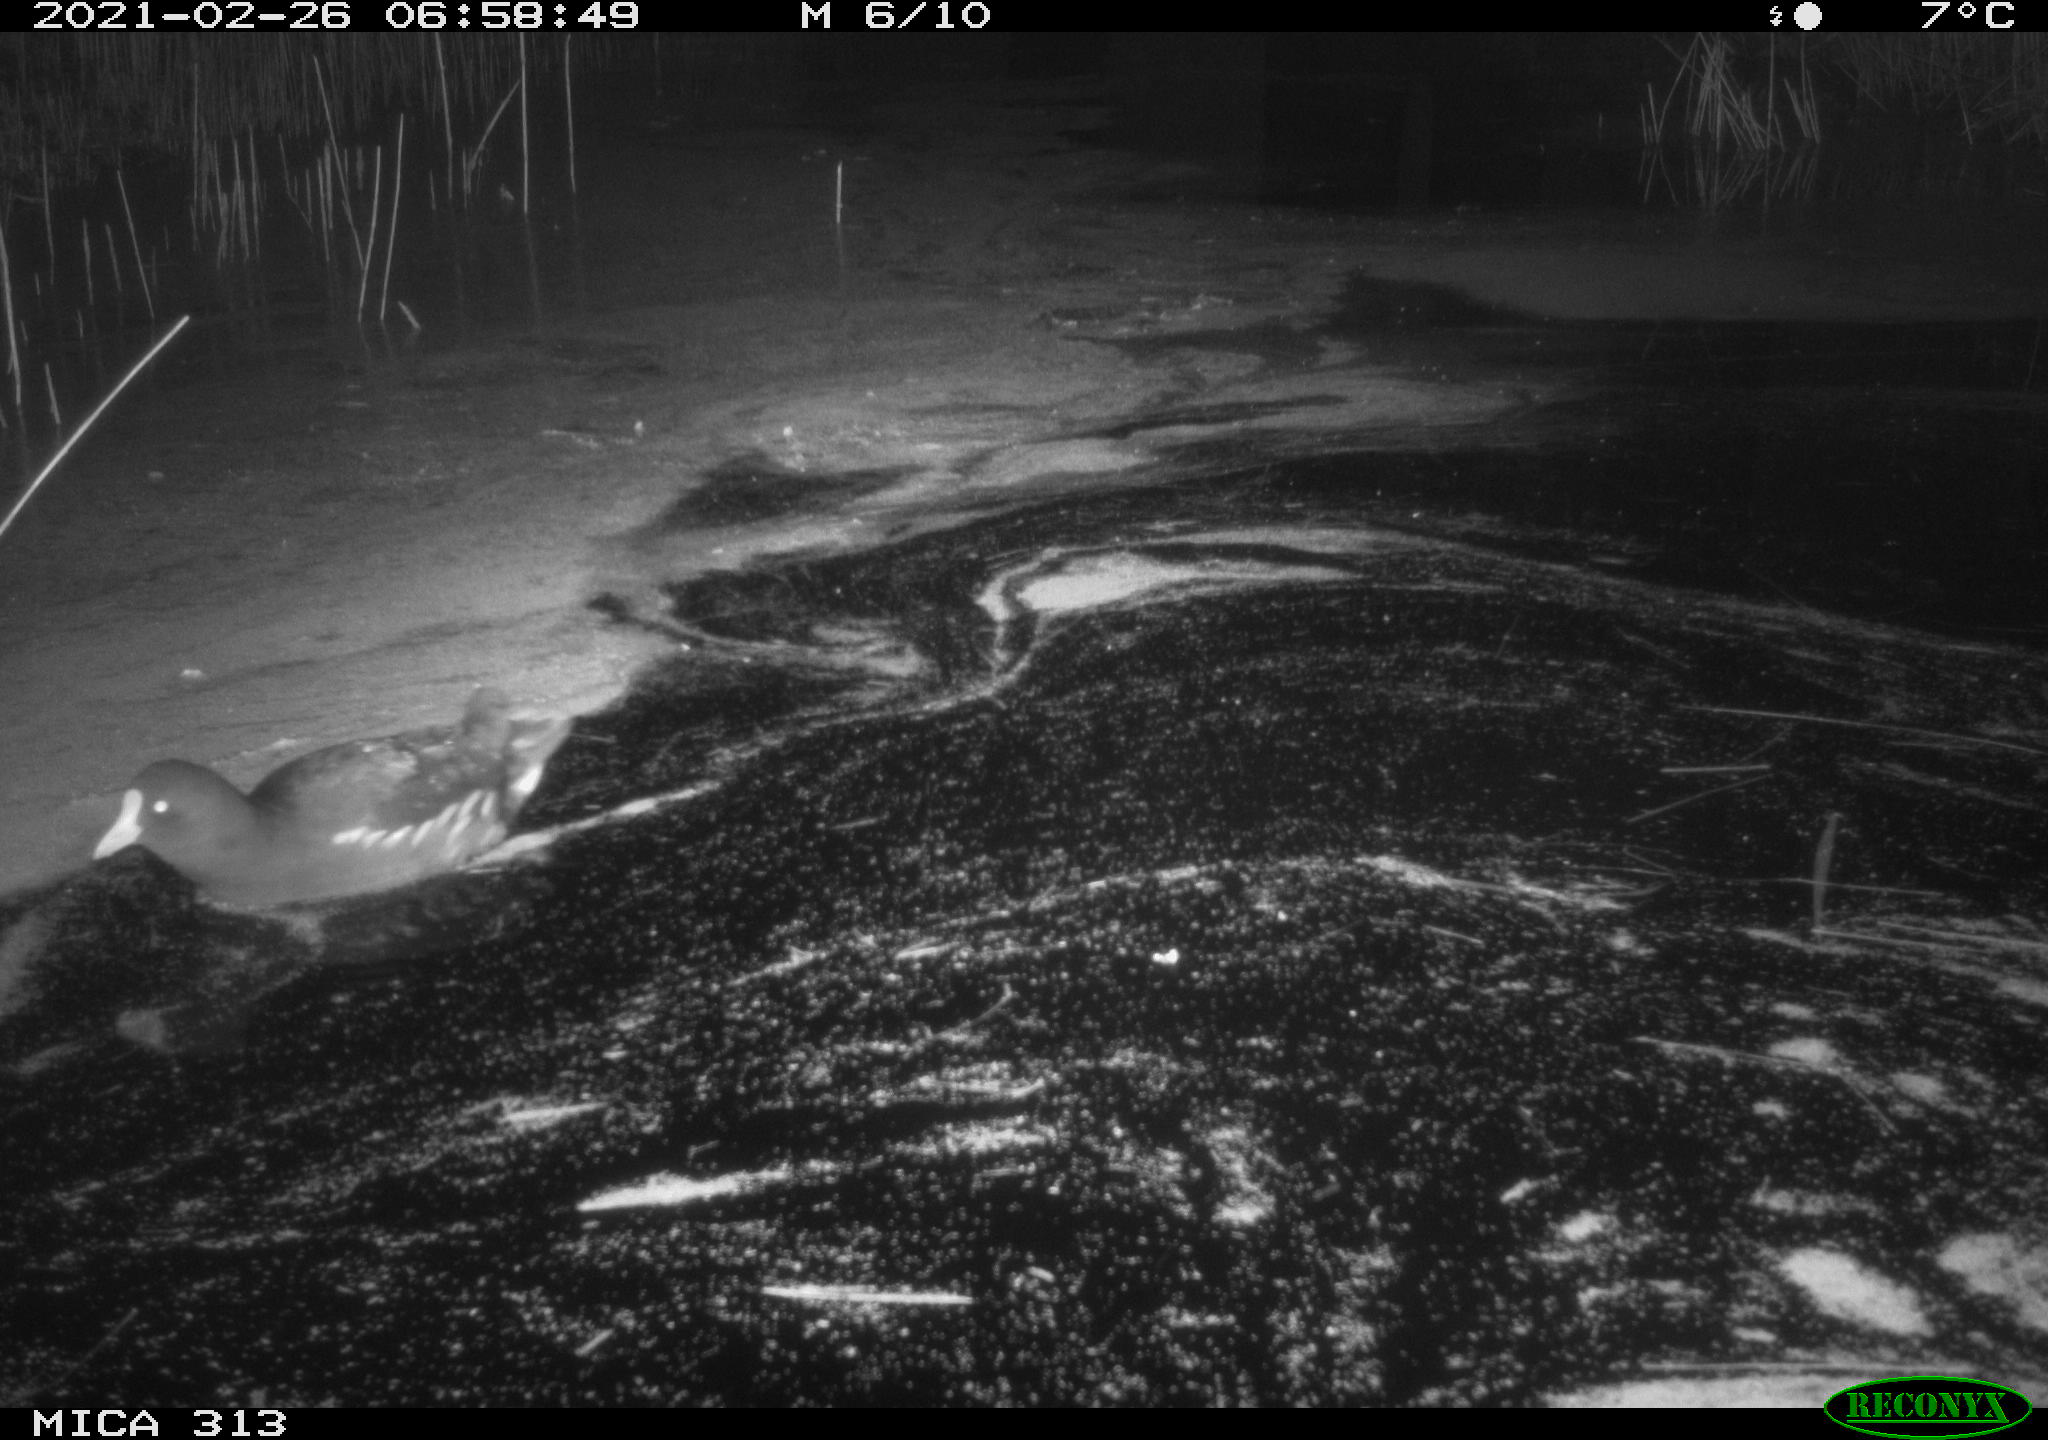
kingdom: Animalia
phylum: Chordata
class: Aves
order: Gruiformes
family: Rallidae
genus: Gallinula
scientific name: Gallinula chloropus
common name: Common moorhen
